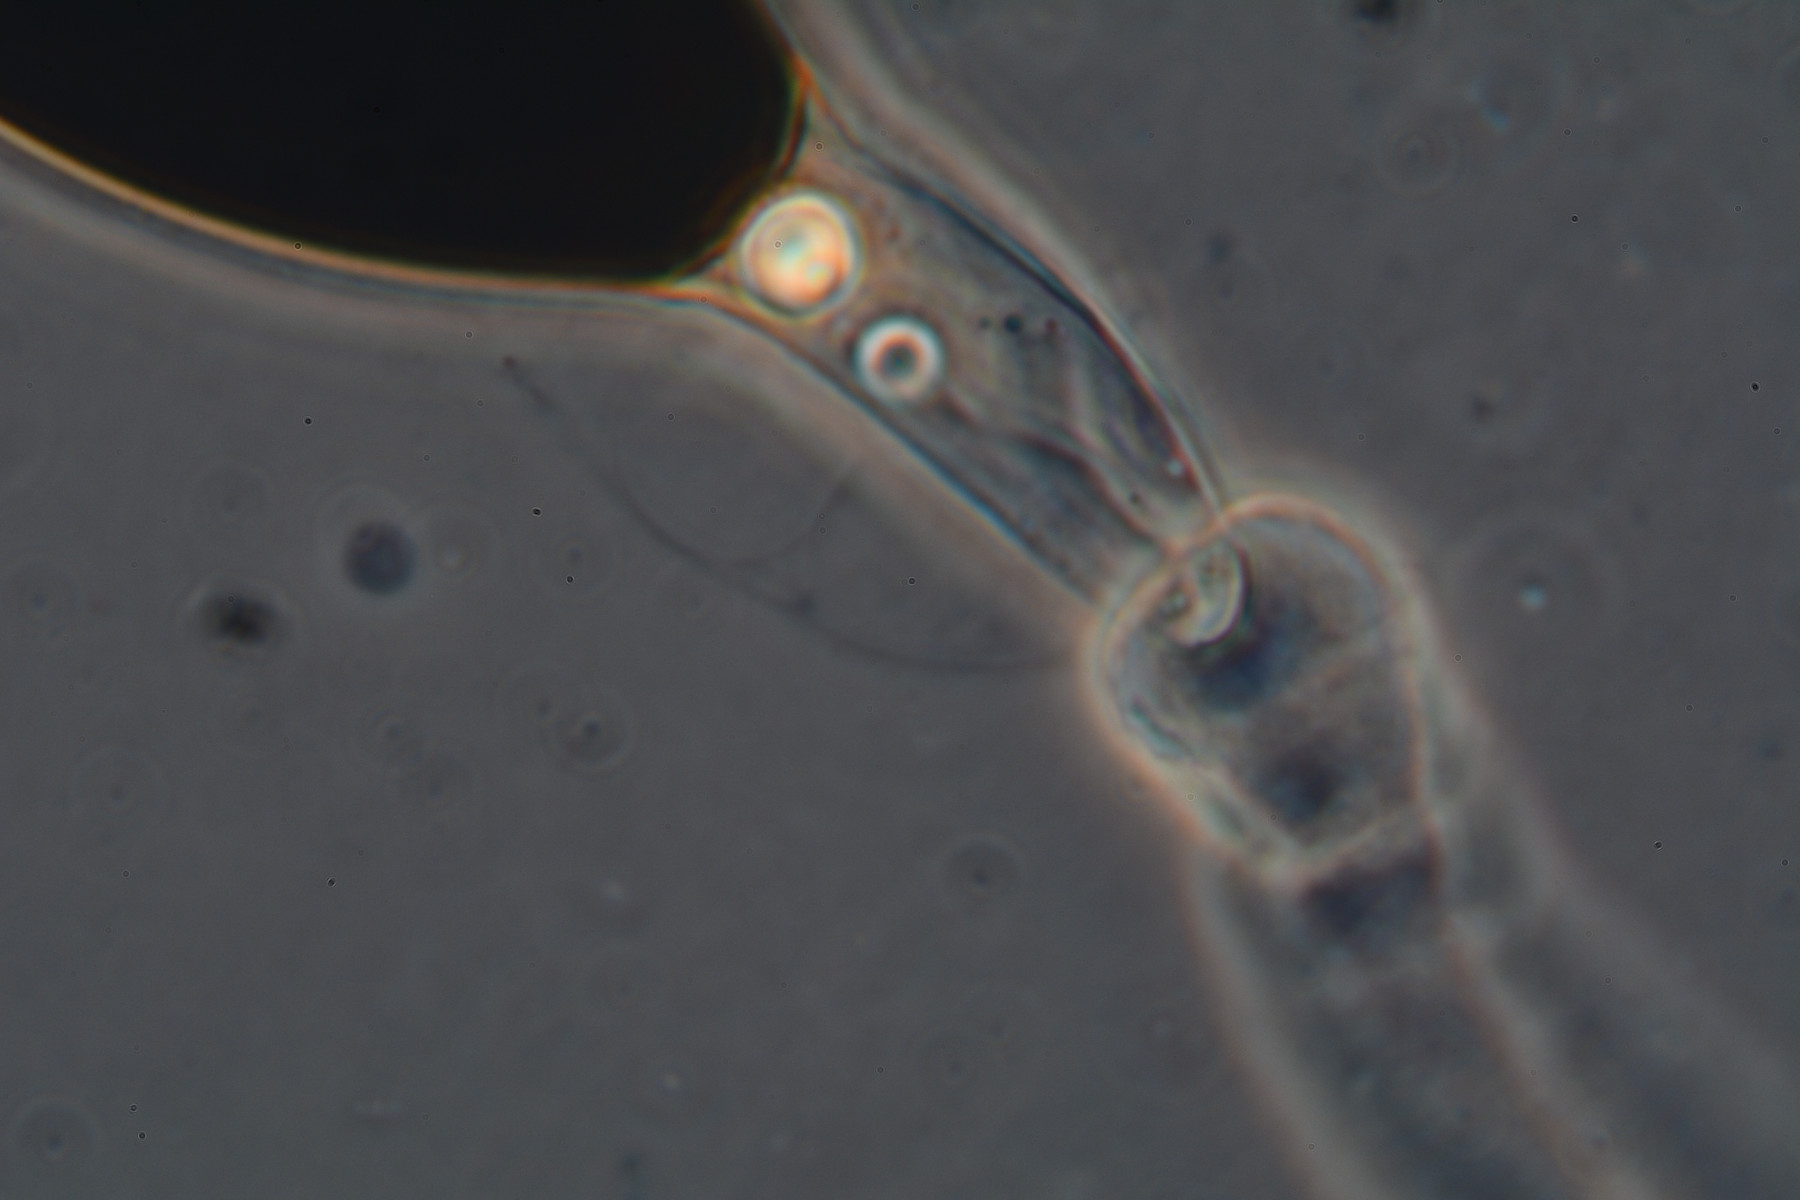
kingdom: Fungi
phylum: Ascomycota
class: Sordariomycetes
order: Sordariales
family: Podosporaceae
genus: Podospora
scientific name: Podospora intestinacea
